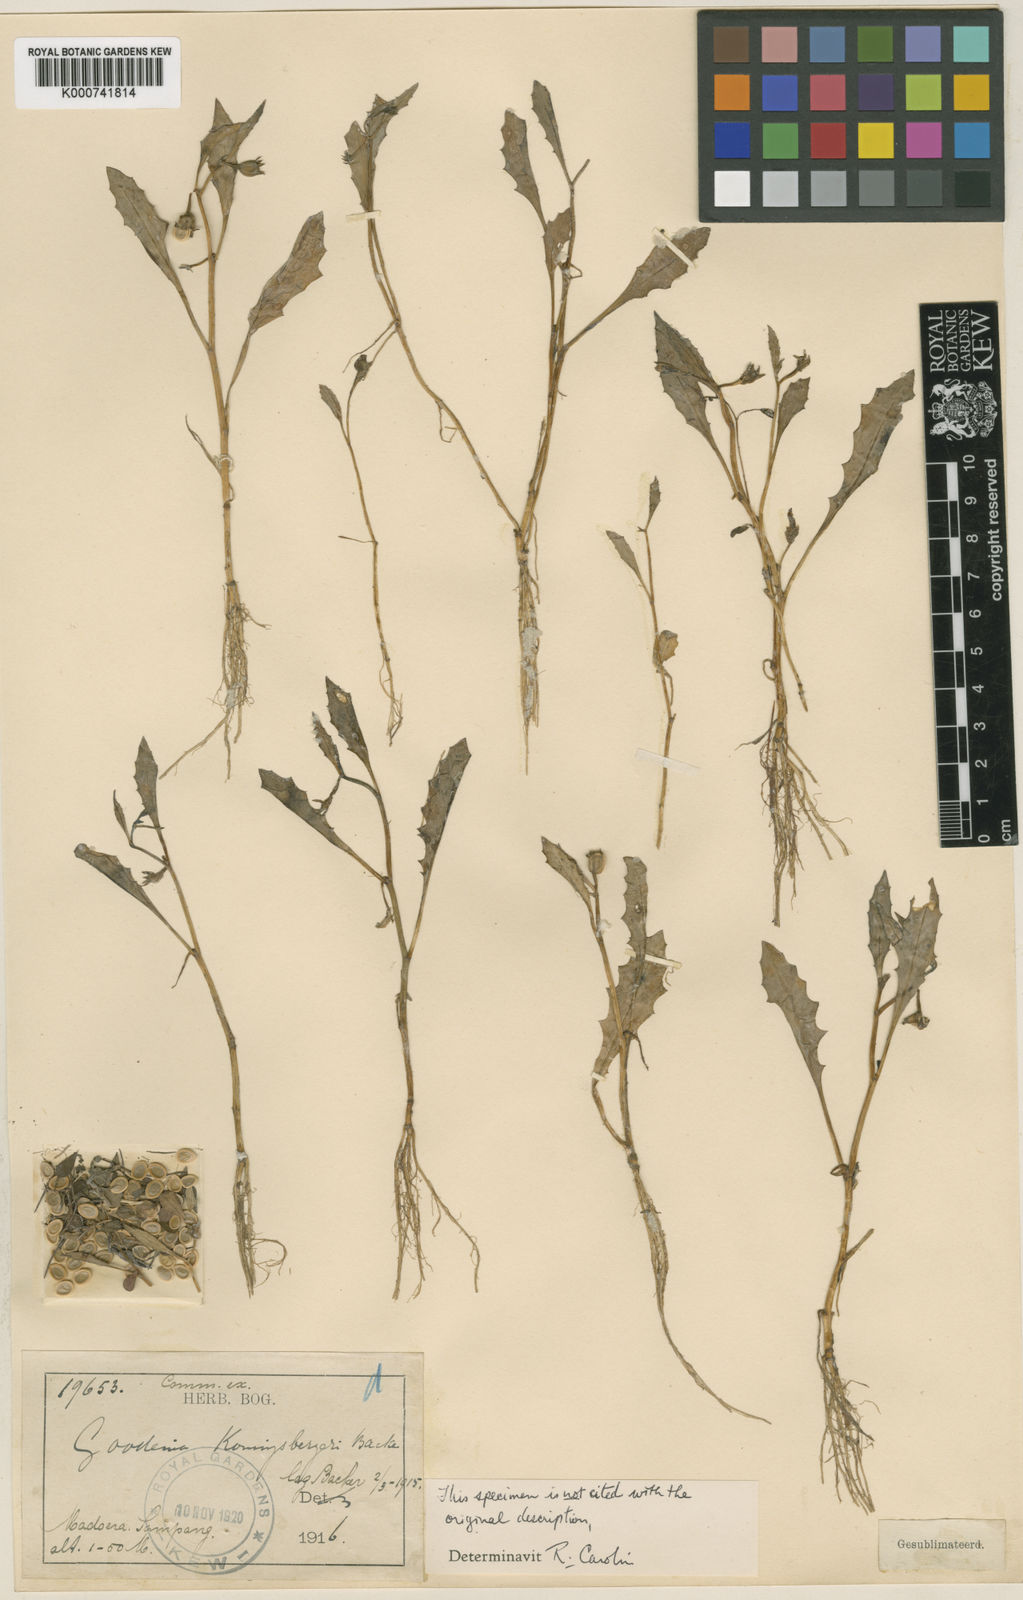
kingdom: Plantae
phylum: Tracheophyta
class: Magnoliopsida
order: Asterales
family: Goodeniaceae
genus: Goodenia
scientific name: Goodenia koenigsbergeri
